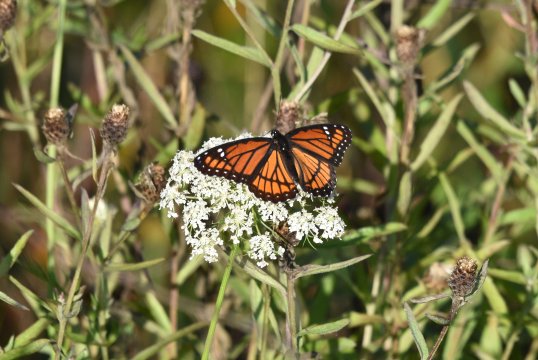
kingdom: Animalia
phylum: Arthropoda
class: Insecta
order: Lepidoptera
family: Nymphalidae
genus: Limenitis
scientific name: Limenitis archippus
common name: Viceroy
